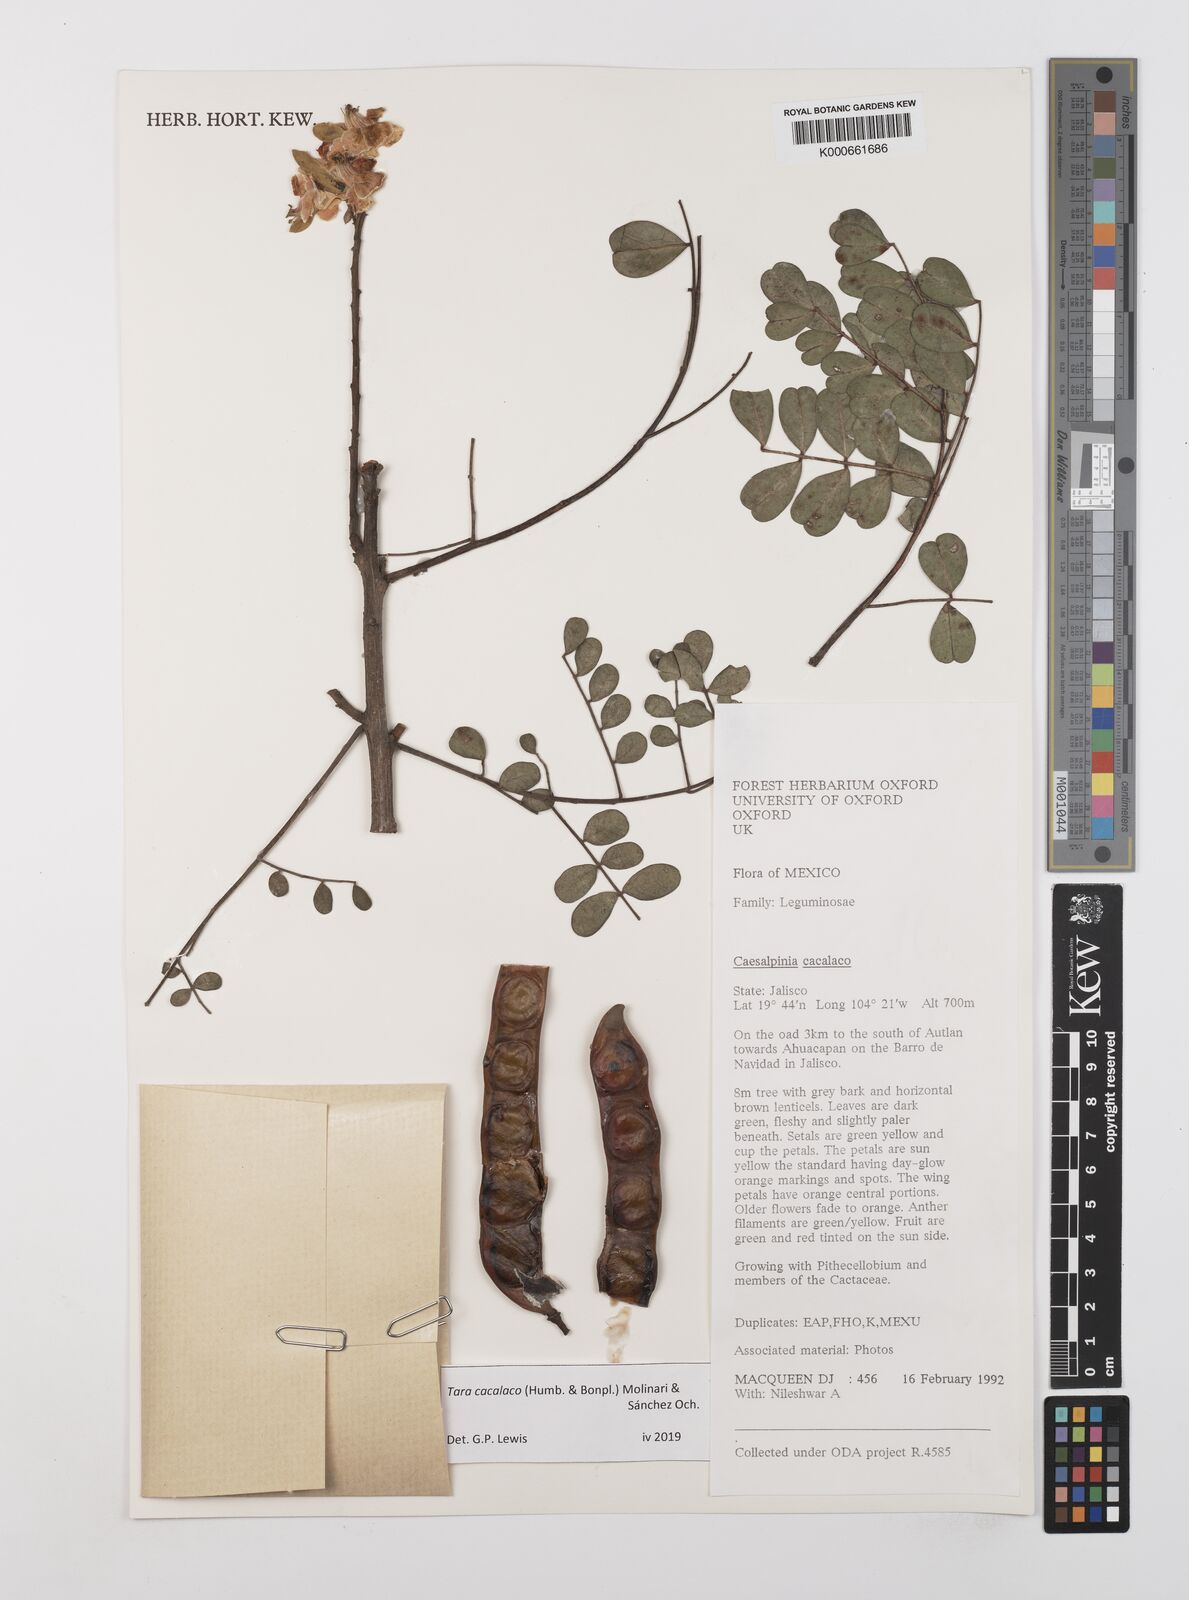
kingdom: Plantae
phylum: Tracheophyta
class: Magnoliopsida
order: Fabales
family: Fabaceae
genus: Tara
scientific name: Tara cacalaco
